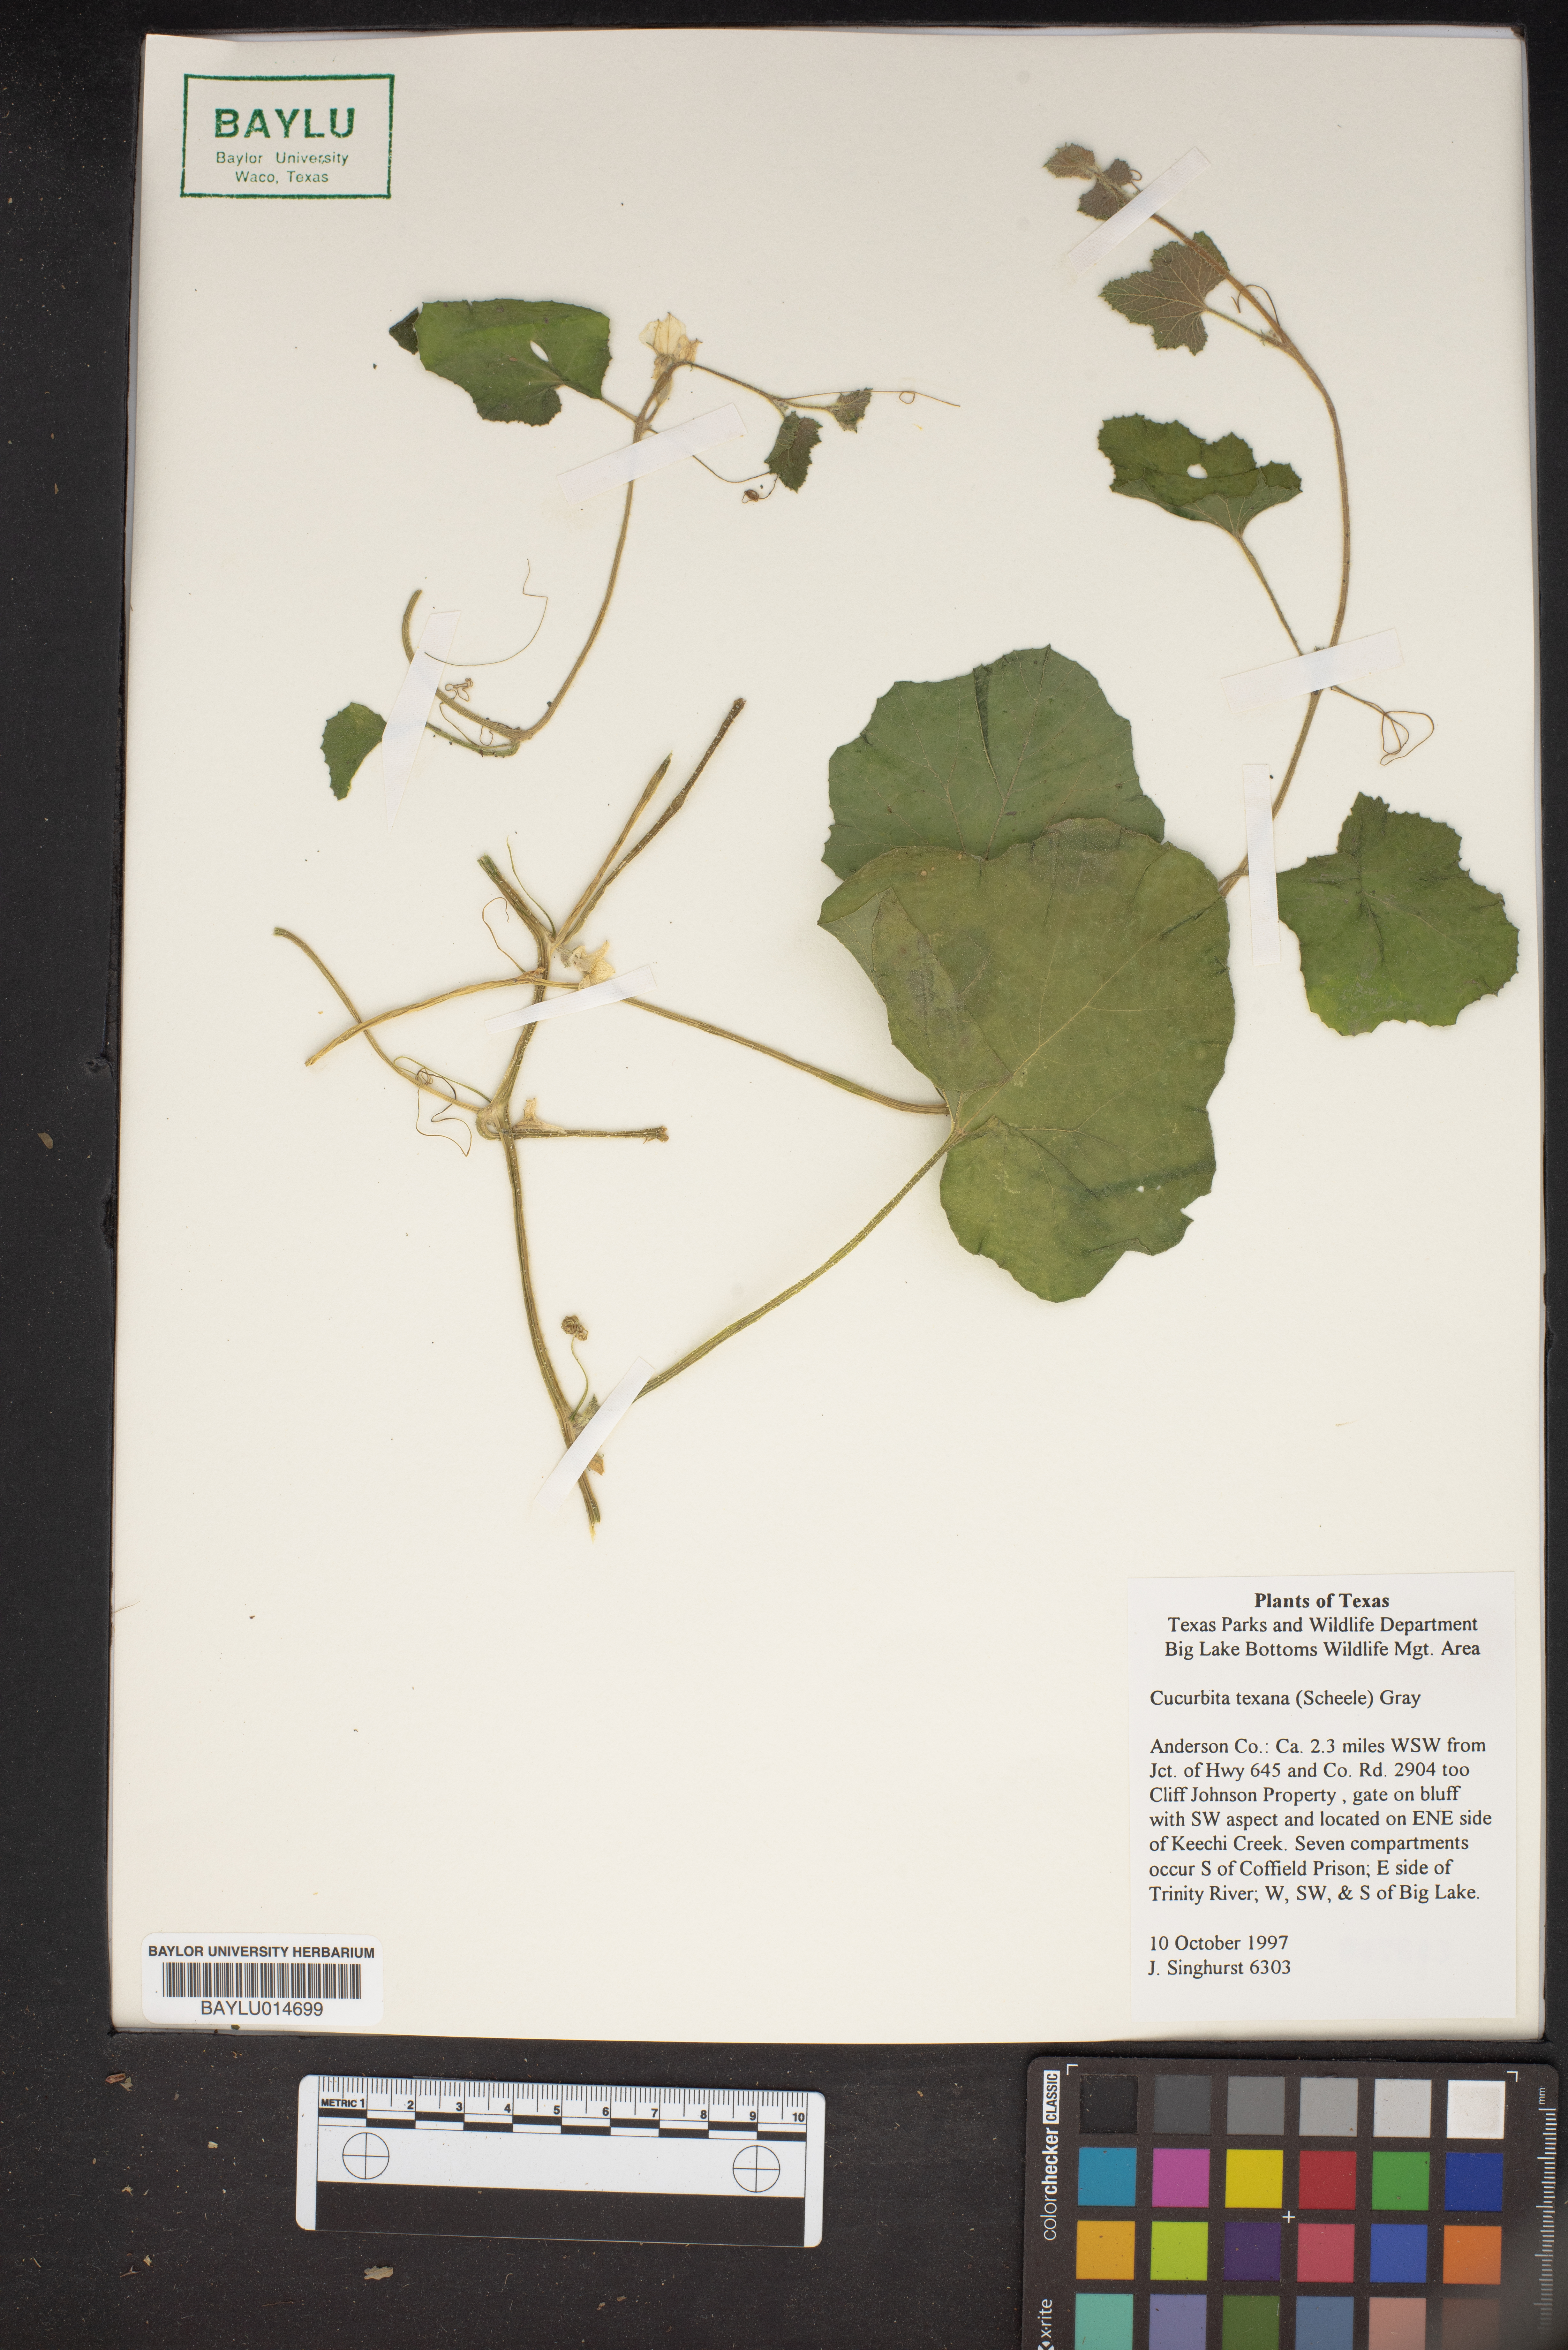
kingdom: Plantae
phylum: Tracheophyta
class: Magnoliopsida
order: Cucurbitales
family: Cucurbitaceae
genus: Cucurbita
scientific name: Cucurbita melopepo
